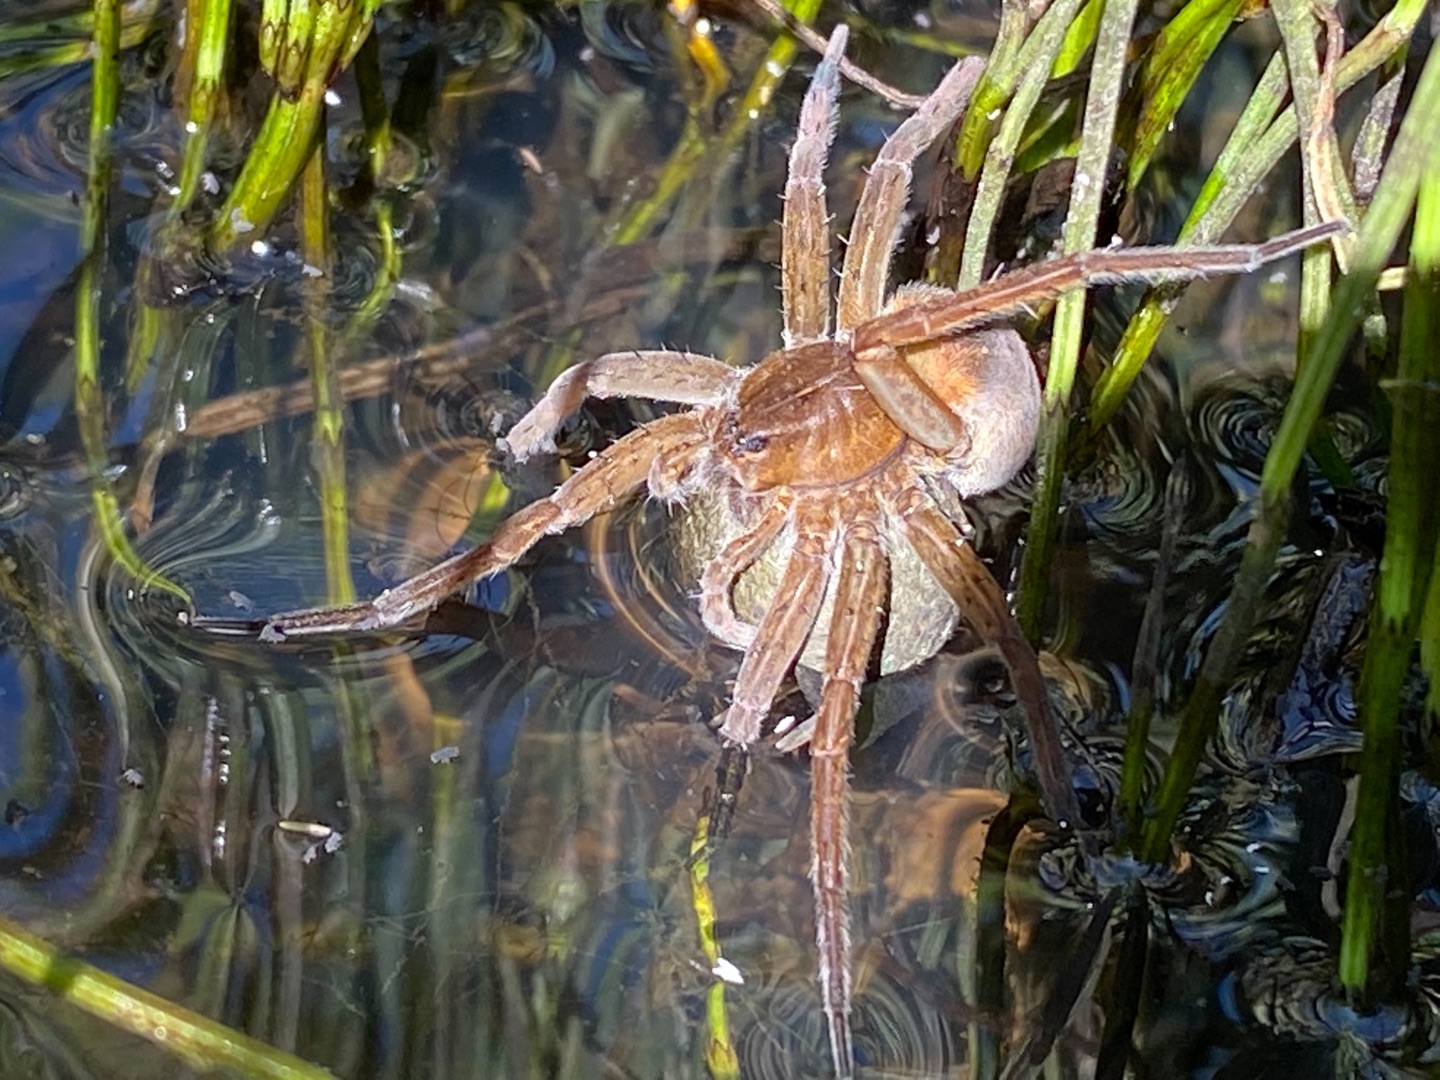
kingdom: Animalia
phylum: Arthropoda
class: Arachnida
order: Araneae
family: Pisauridae
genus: Dolomedes
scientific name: Dolomedes plantarius
